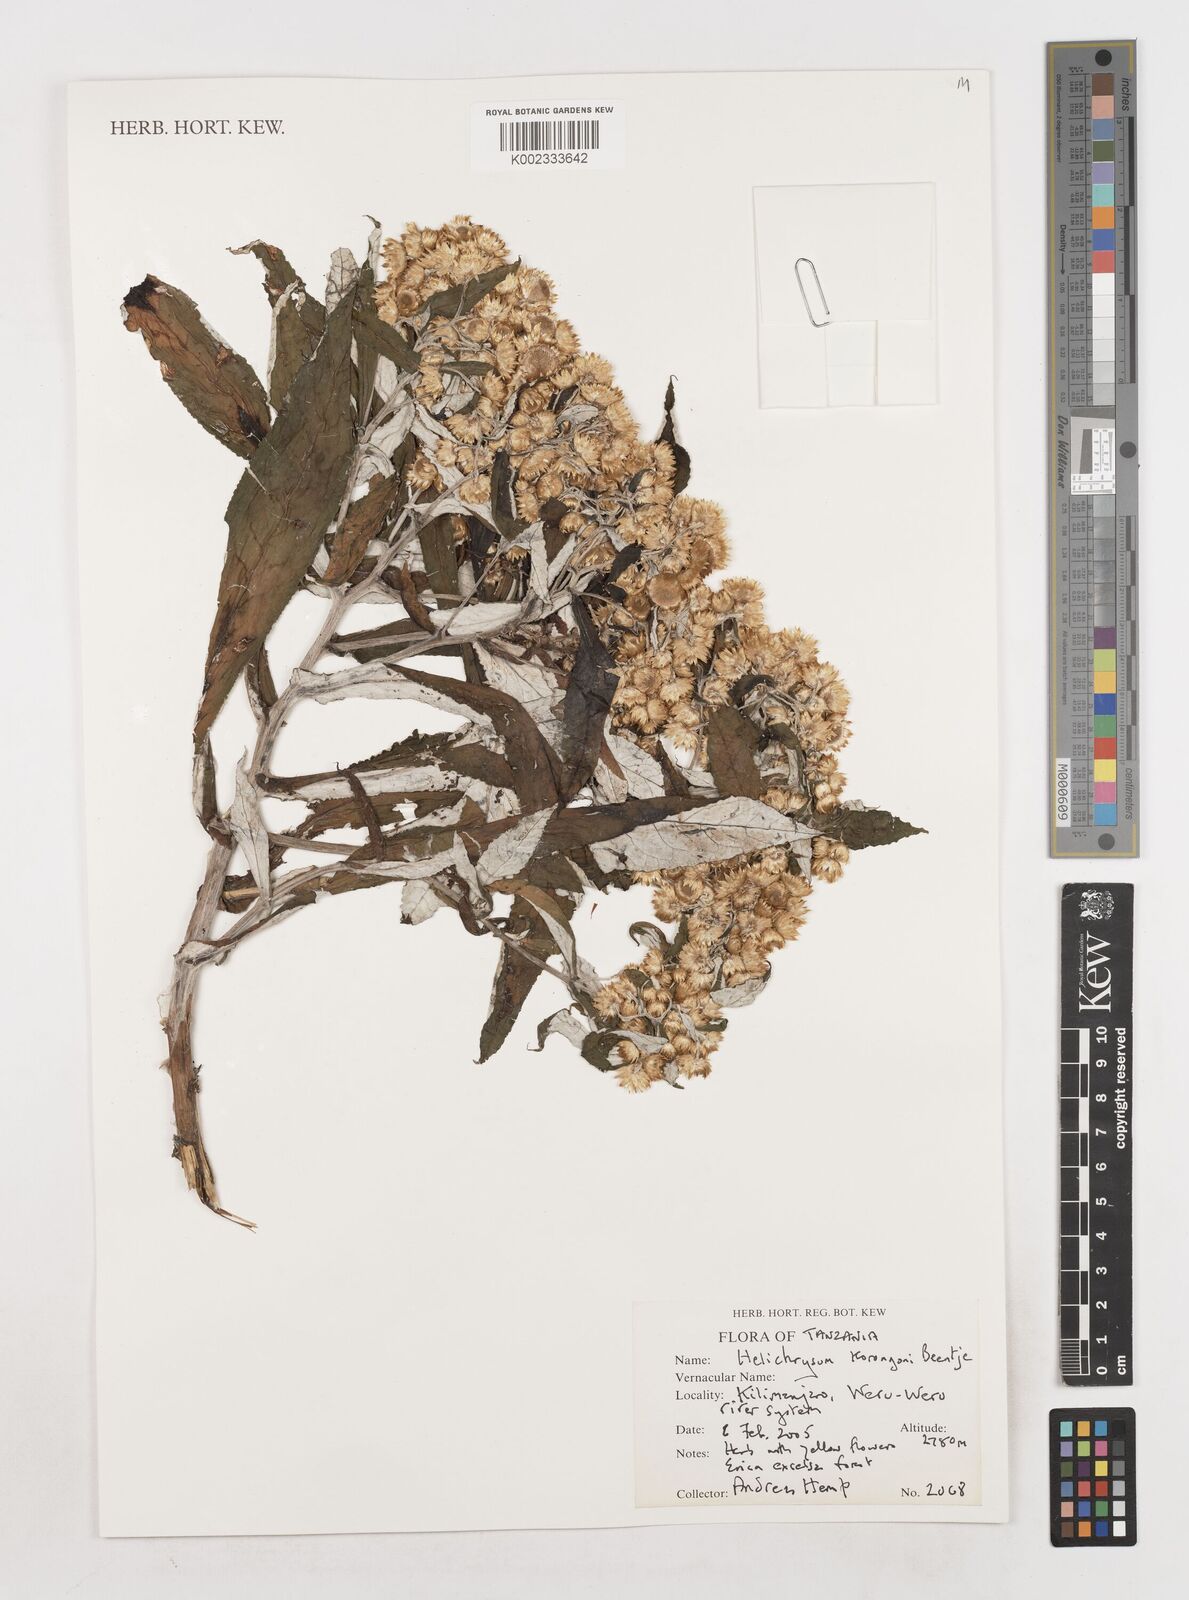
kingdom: Plantae
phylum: Tracheophyta
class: Magnoliopsida
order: Asterales
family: Asteraceae
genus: Helichrysum
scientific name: Helichrysum korongoni
